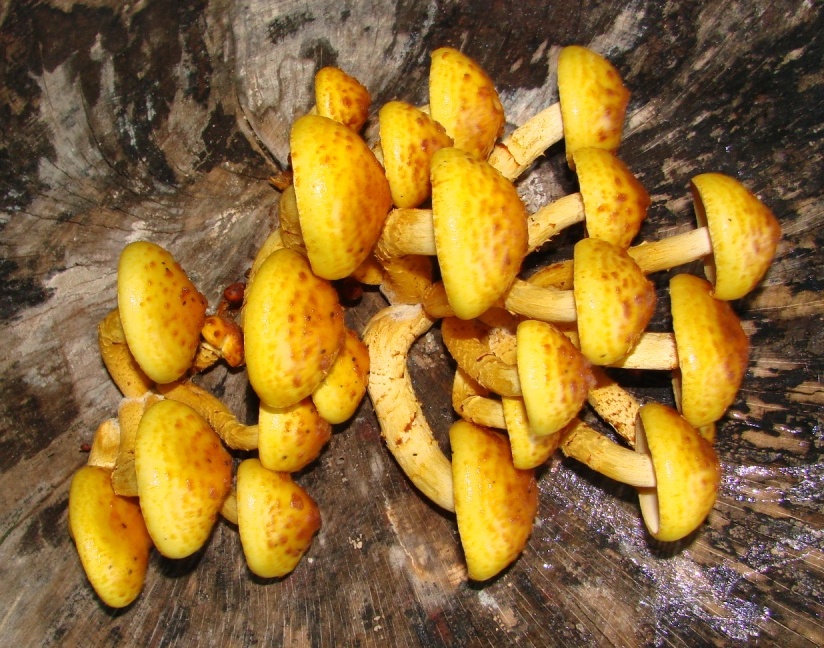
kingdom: Fungi
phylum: Basidiomycota
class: Agaricomycetes
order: Agaricales
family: Strophariaceae
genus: Pholiota
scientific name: Pholiota adiposa
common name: højtsiddende skælhat
